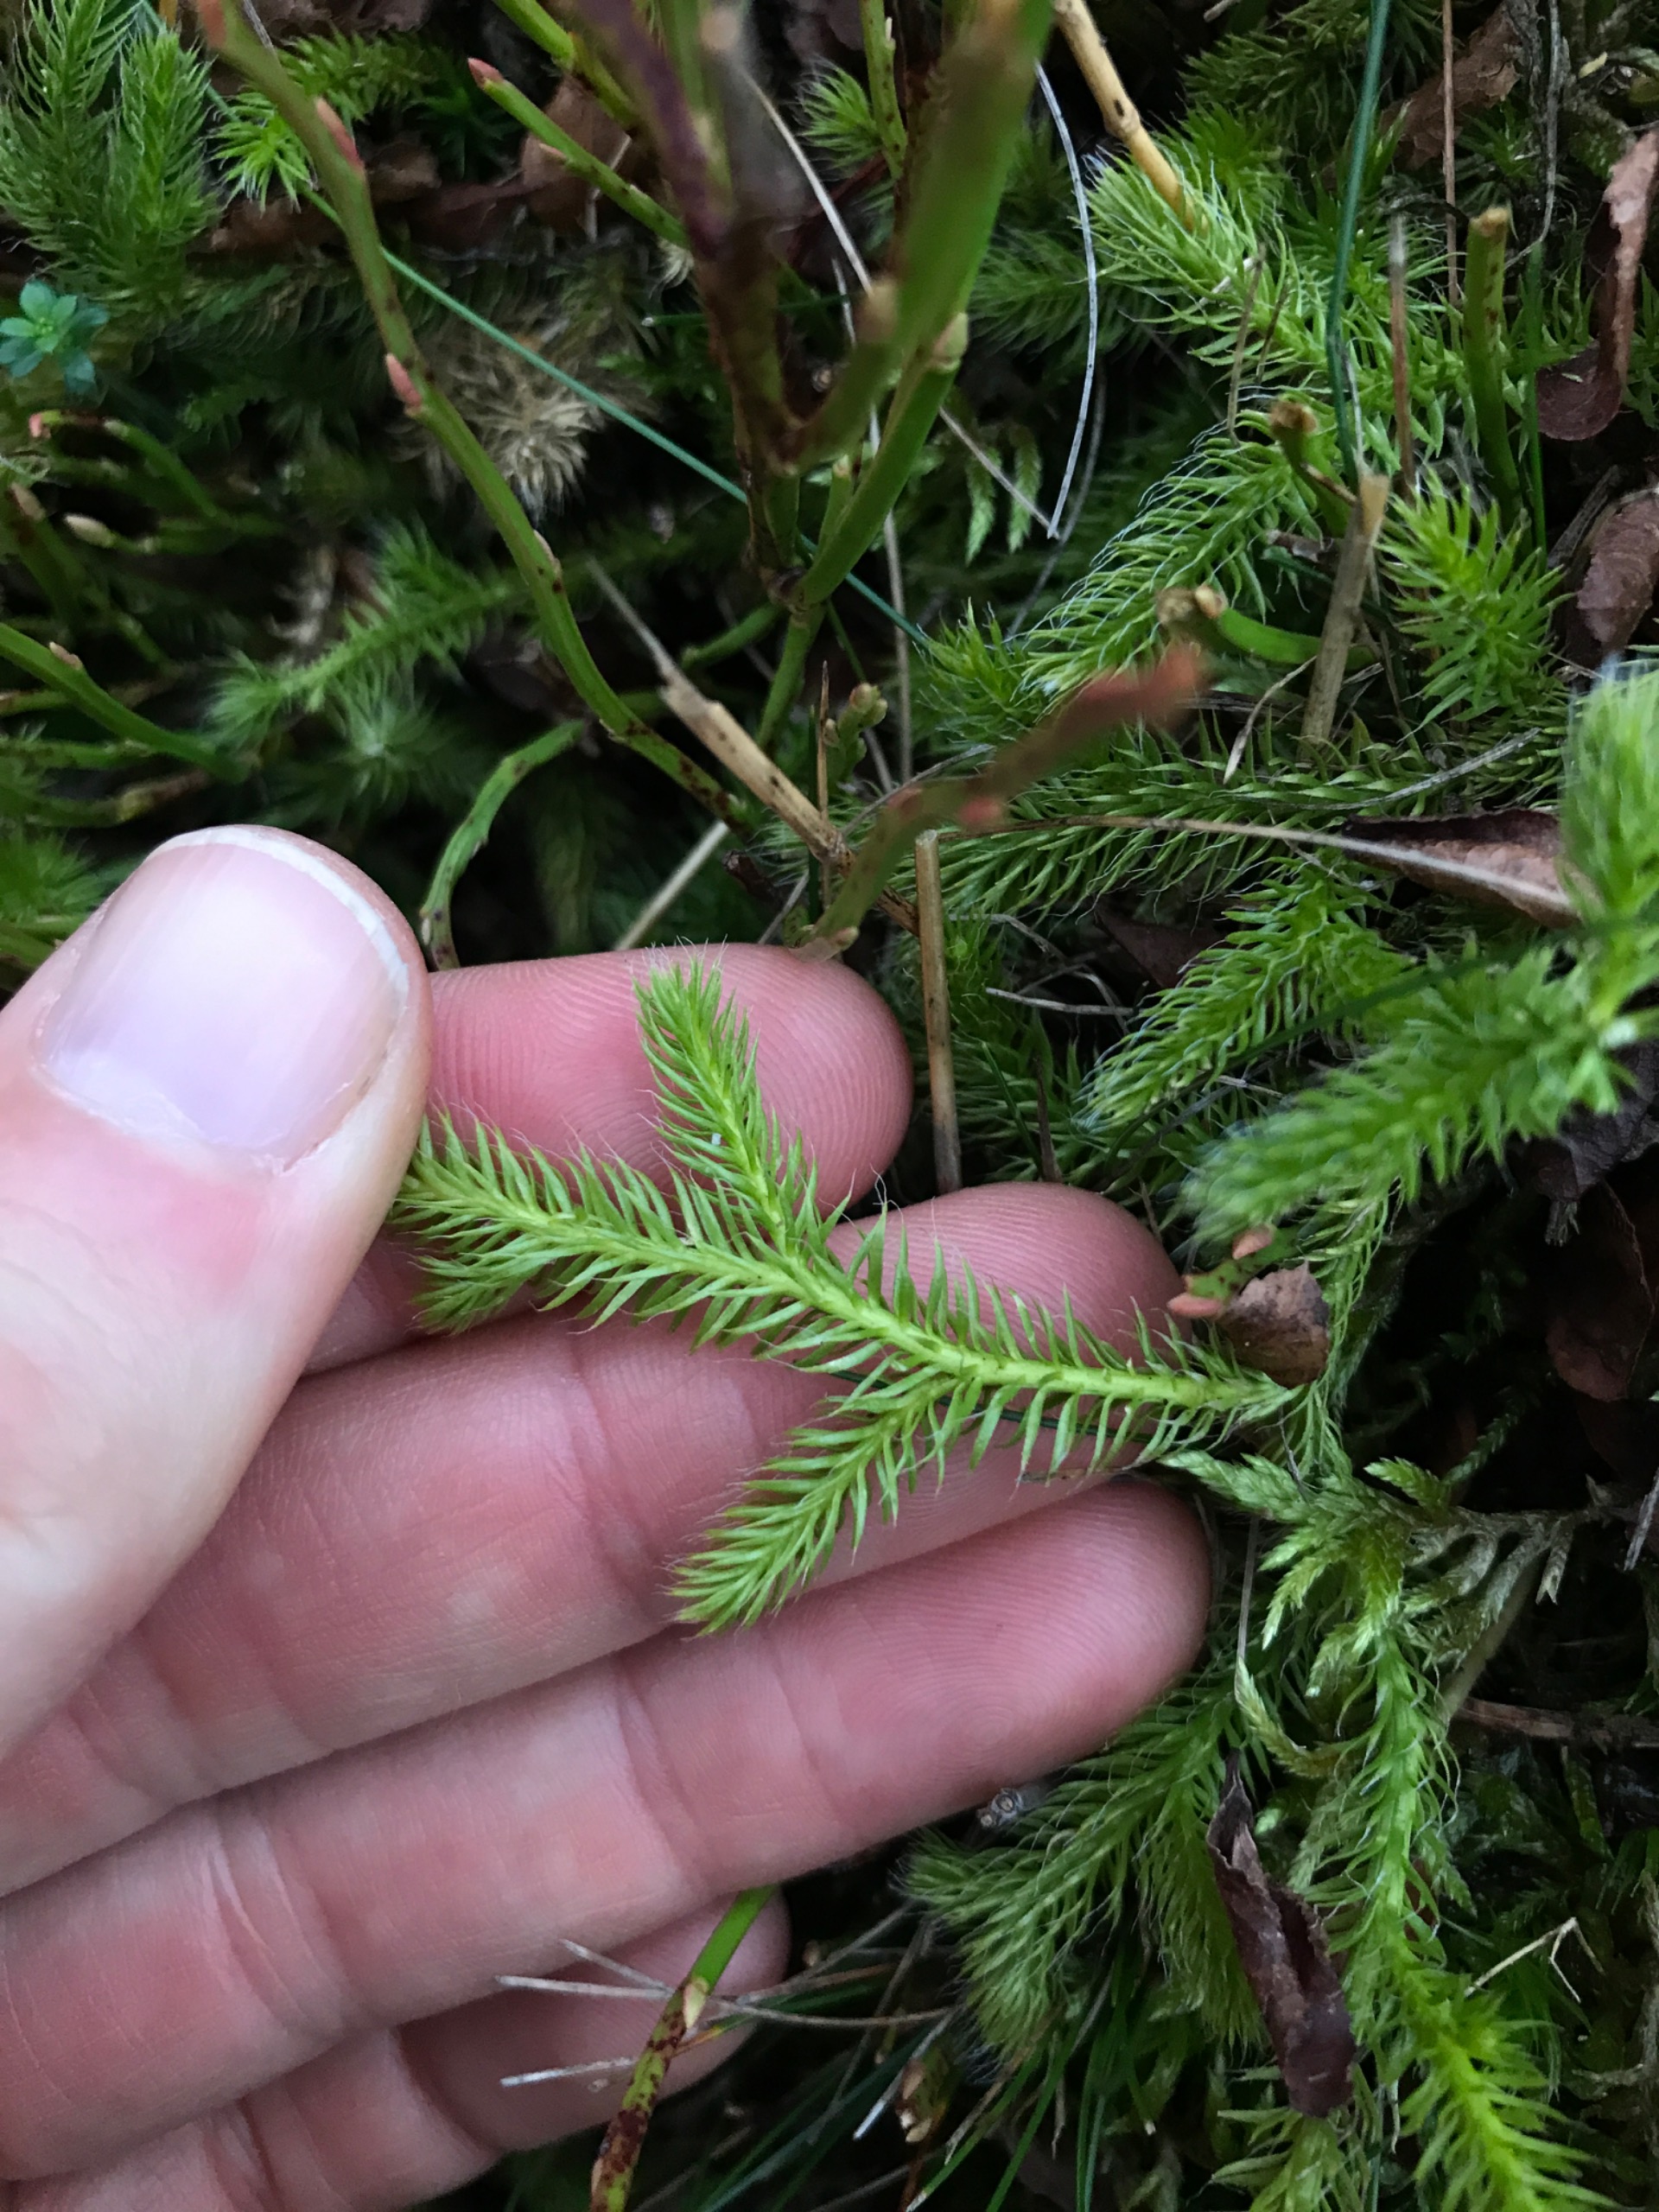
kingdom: Plantae
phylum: Tracheophyta
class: Lycopodiopsida
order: Lycopodiales
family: Lycopodiaceae
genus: Lycopodium
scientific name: Lycopodium clavatum
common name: Almindelig ulvefod
